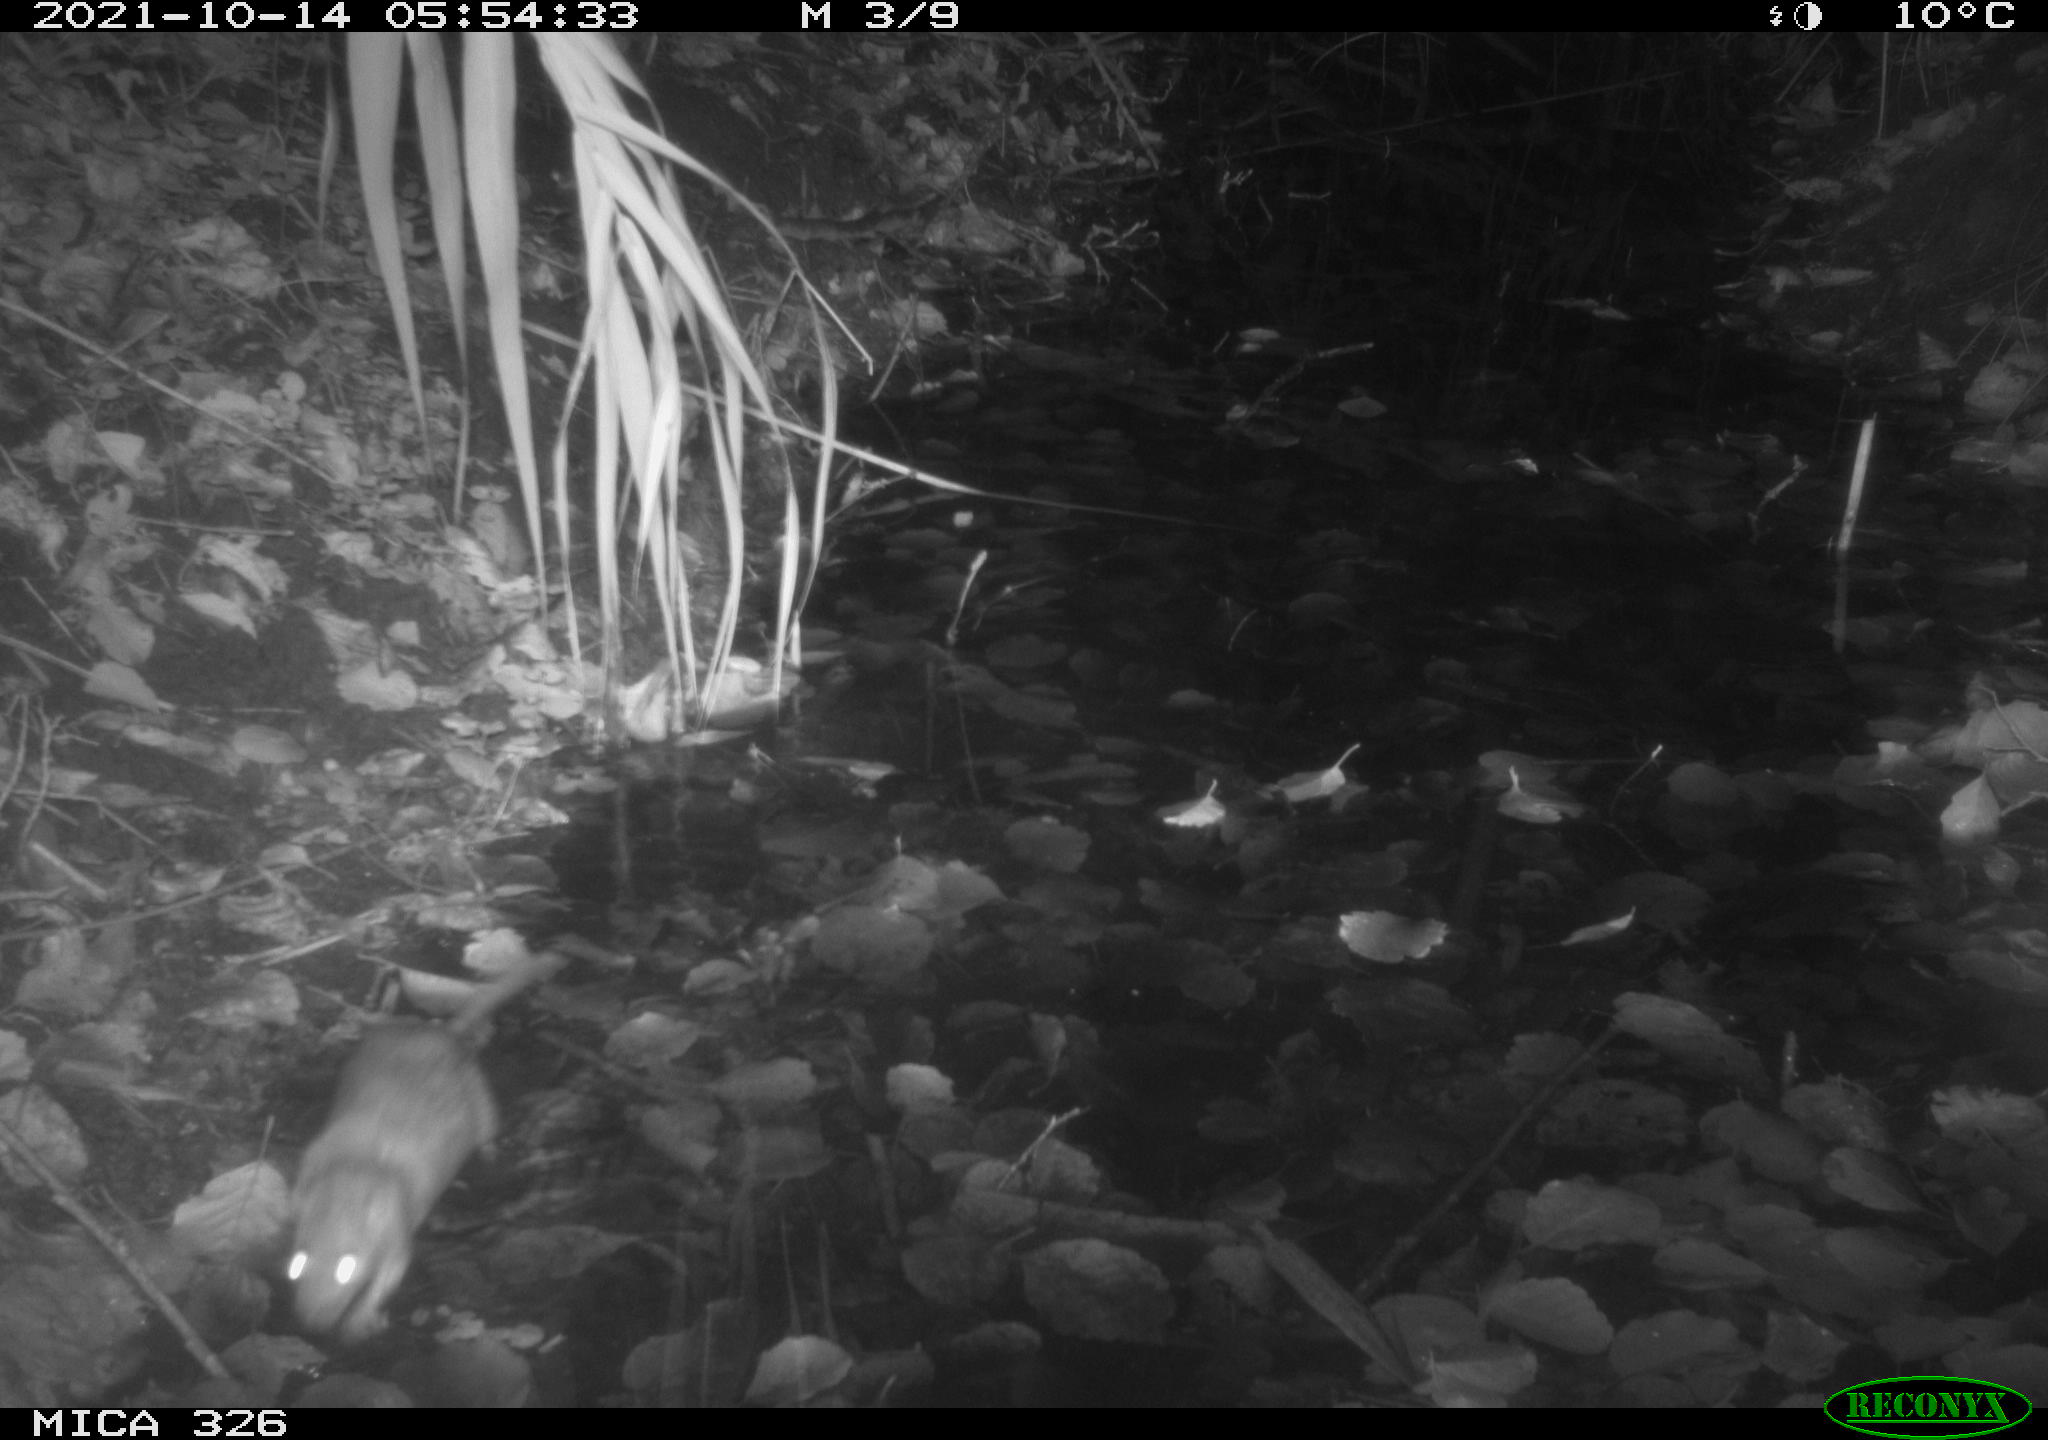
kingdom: Animalia
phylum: Chordata
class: Mammalia
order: Rodentia
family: Muridae
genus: Rattus
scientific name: Rattus norvegicus
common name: Brown rat
